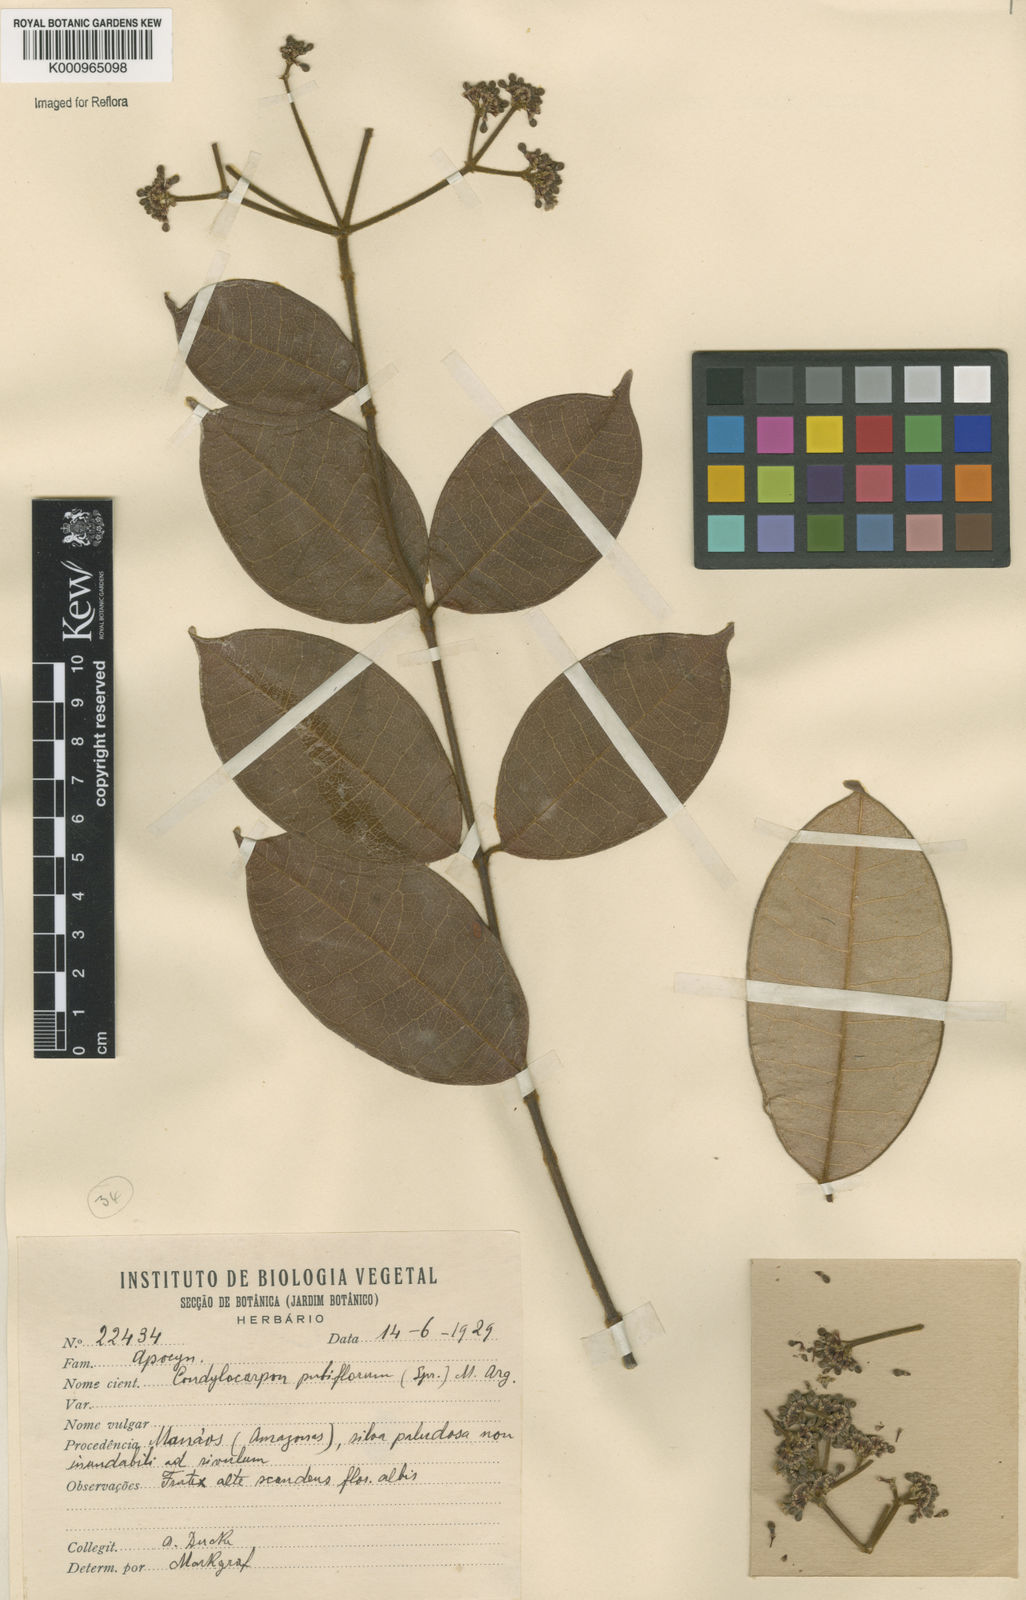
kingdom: Plantae
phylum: Tracheophyta
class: Magnoliopsida
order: Gentianales
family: Apocynaceae
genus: Condylocarpon
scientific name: Condylocarpon
